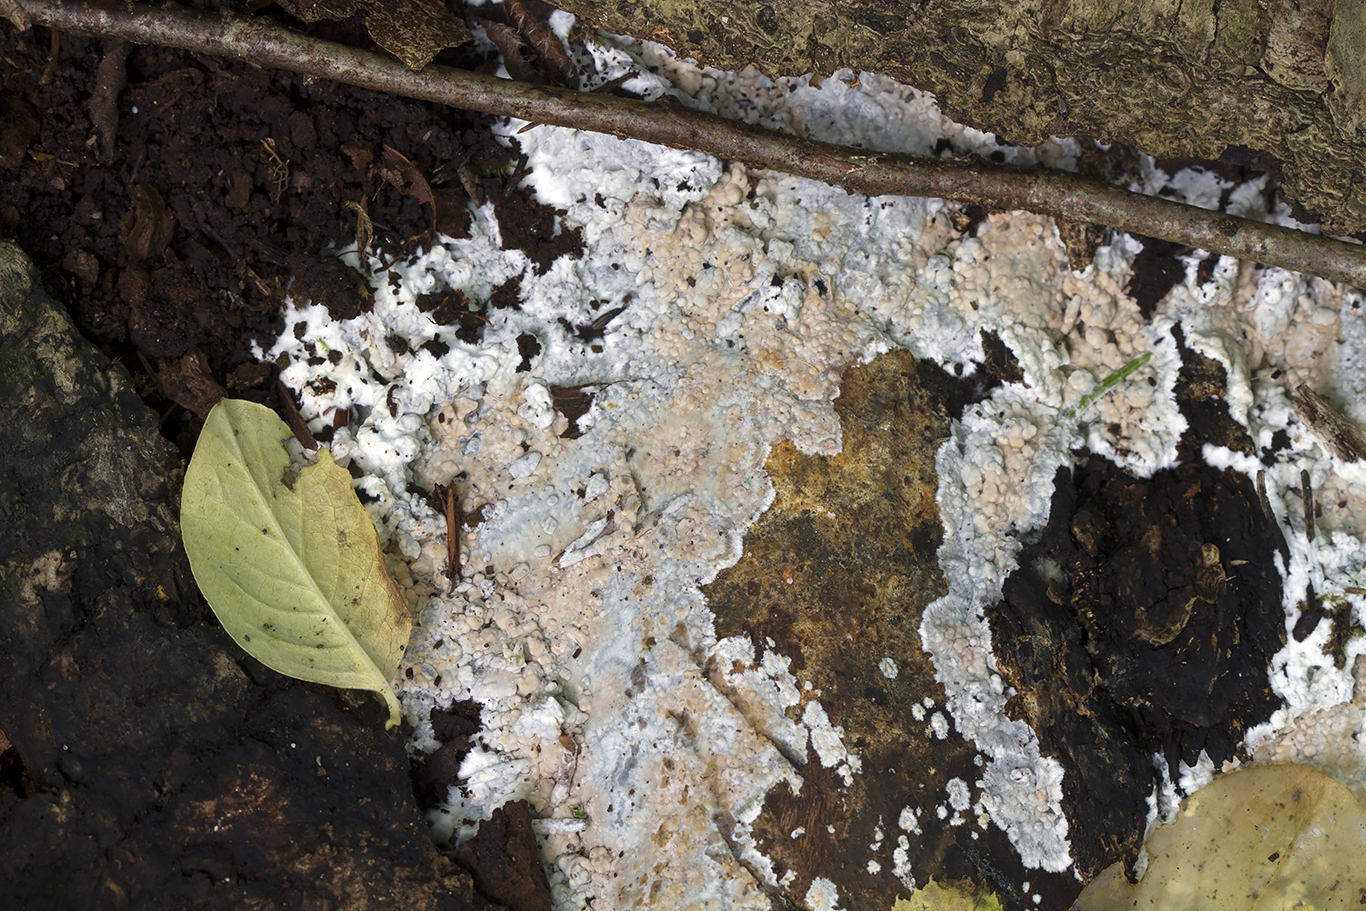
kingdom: Fungi
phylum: Basidiomycota
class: Agaricomycetes
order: Russulales
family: Peniophoraceae
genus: Gloiothele
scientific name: Gloiothele lactescens
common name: bitter olieskind
